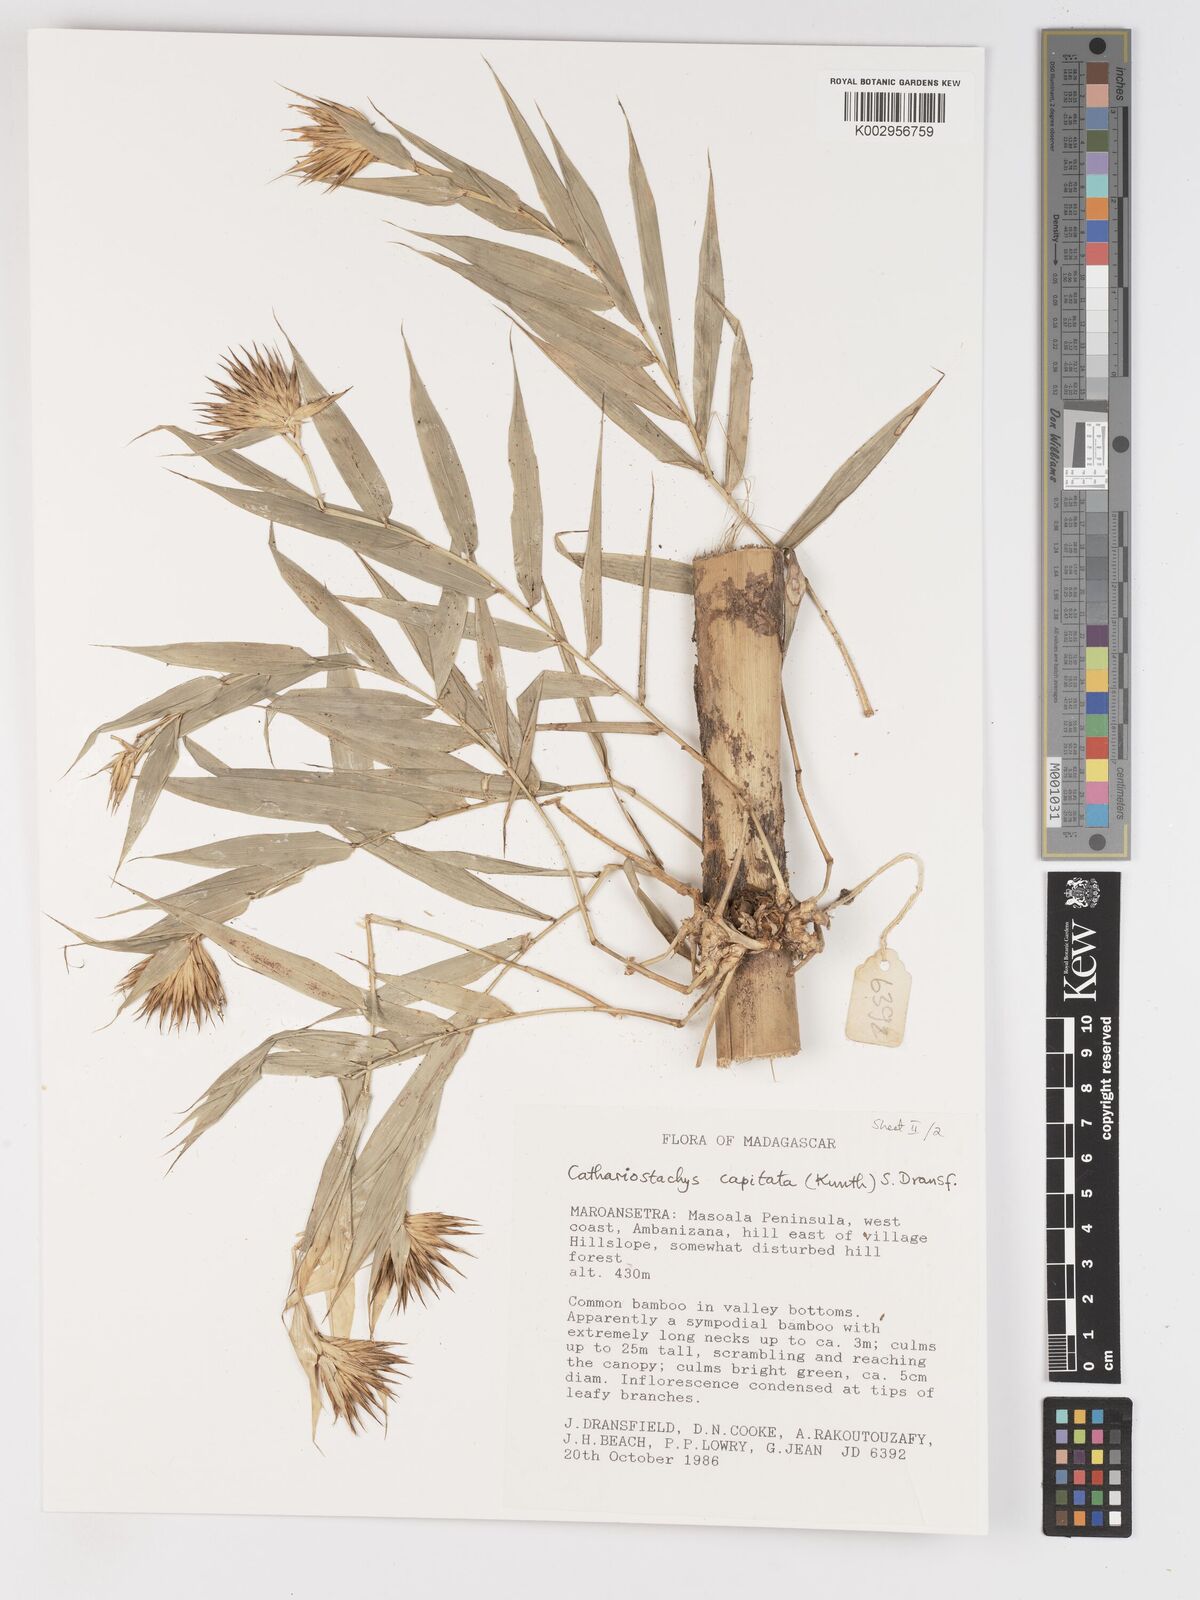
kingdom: Plantae
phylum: Tracheophyta
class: Liliopsida
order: Poales
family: Poaceae
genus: Cathariostachys
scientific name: Cathariostachys capitata
